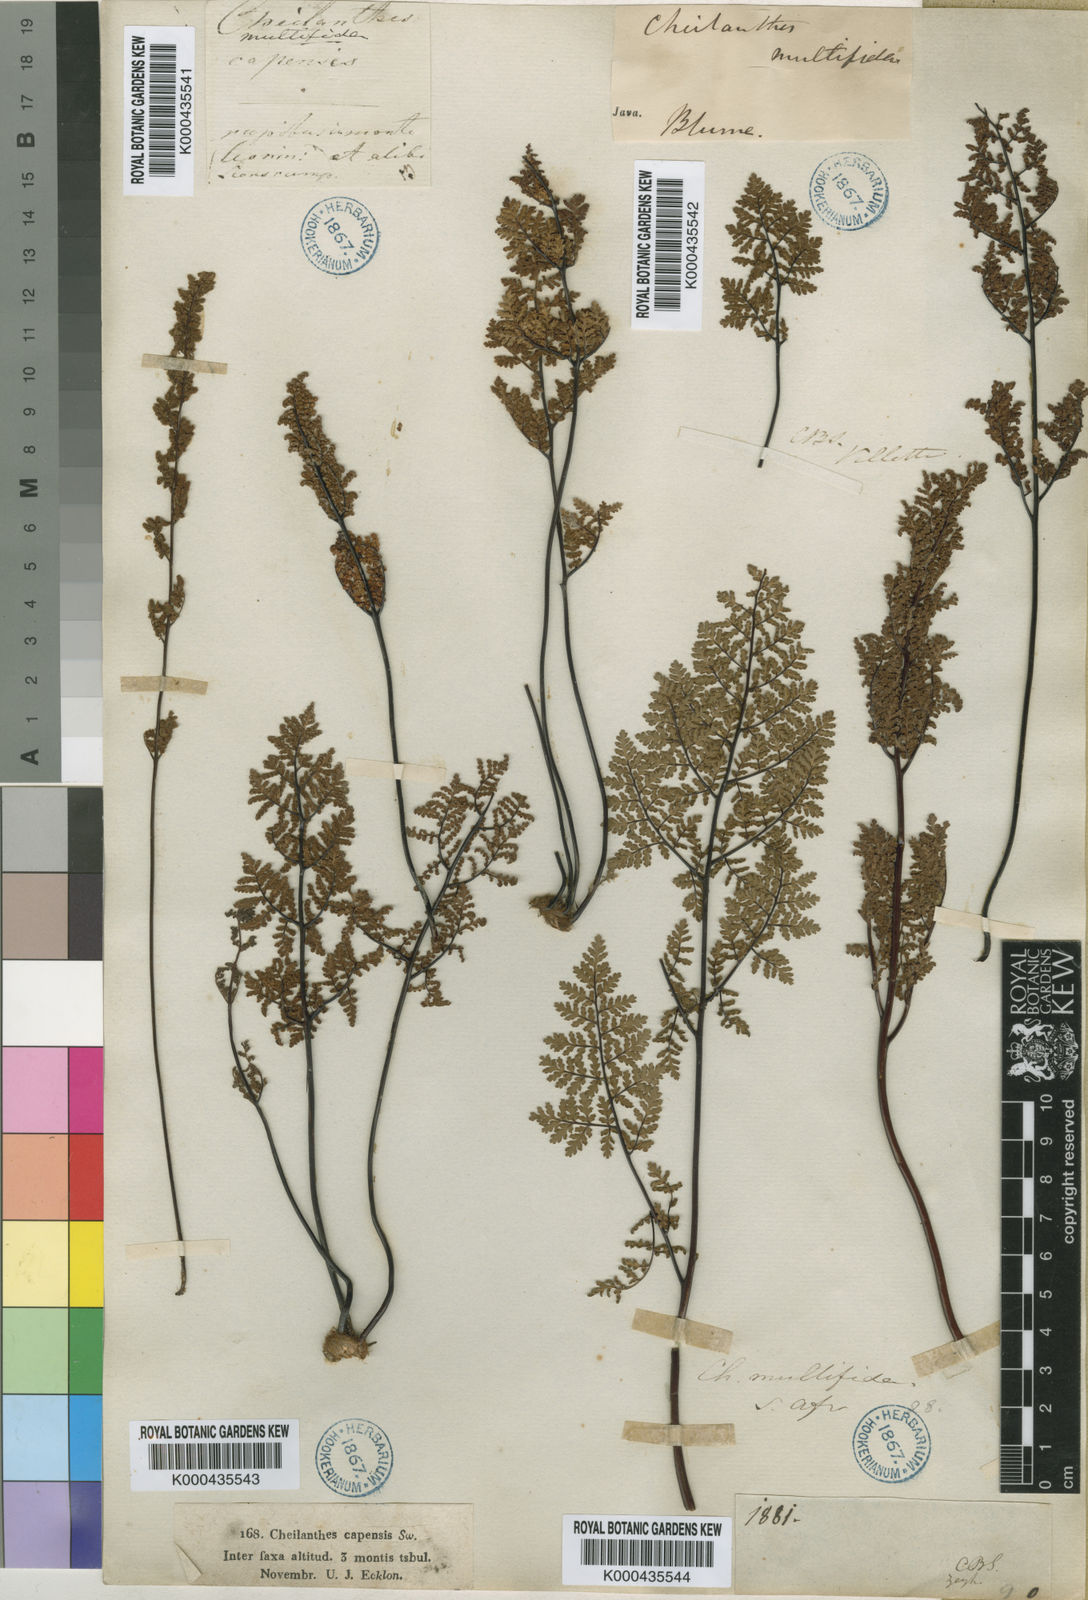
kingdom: Plantae
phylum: Tracheophyta
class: Polypodiopsida
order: Polypodiales
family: Pteridaceae
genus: Cheilanthes
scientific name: Cheilanthes multifida
